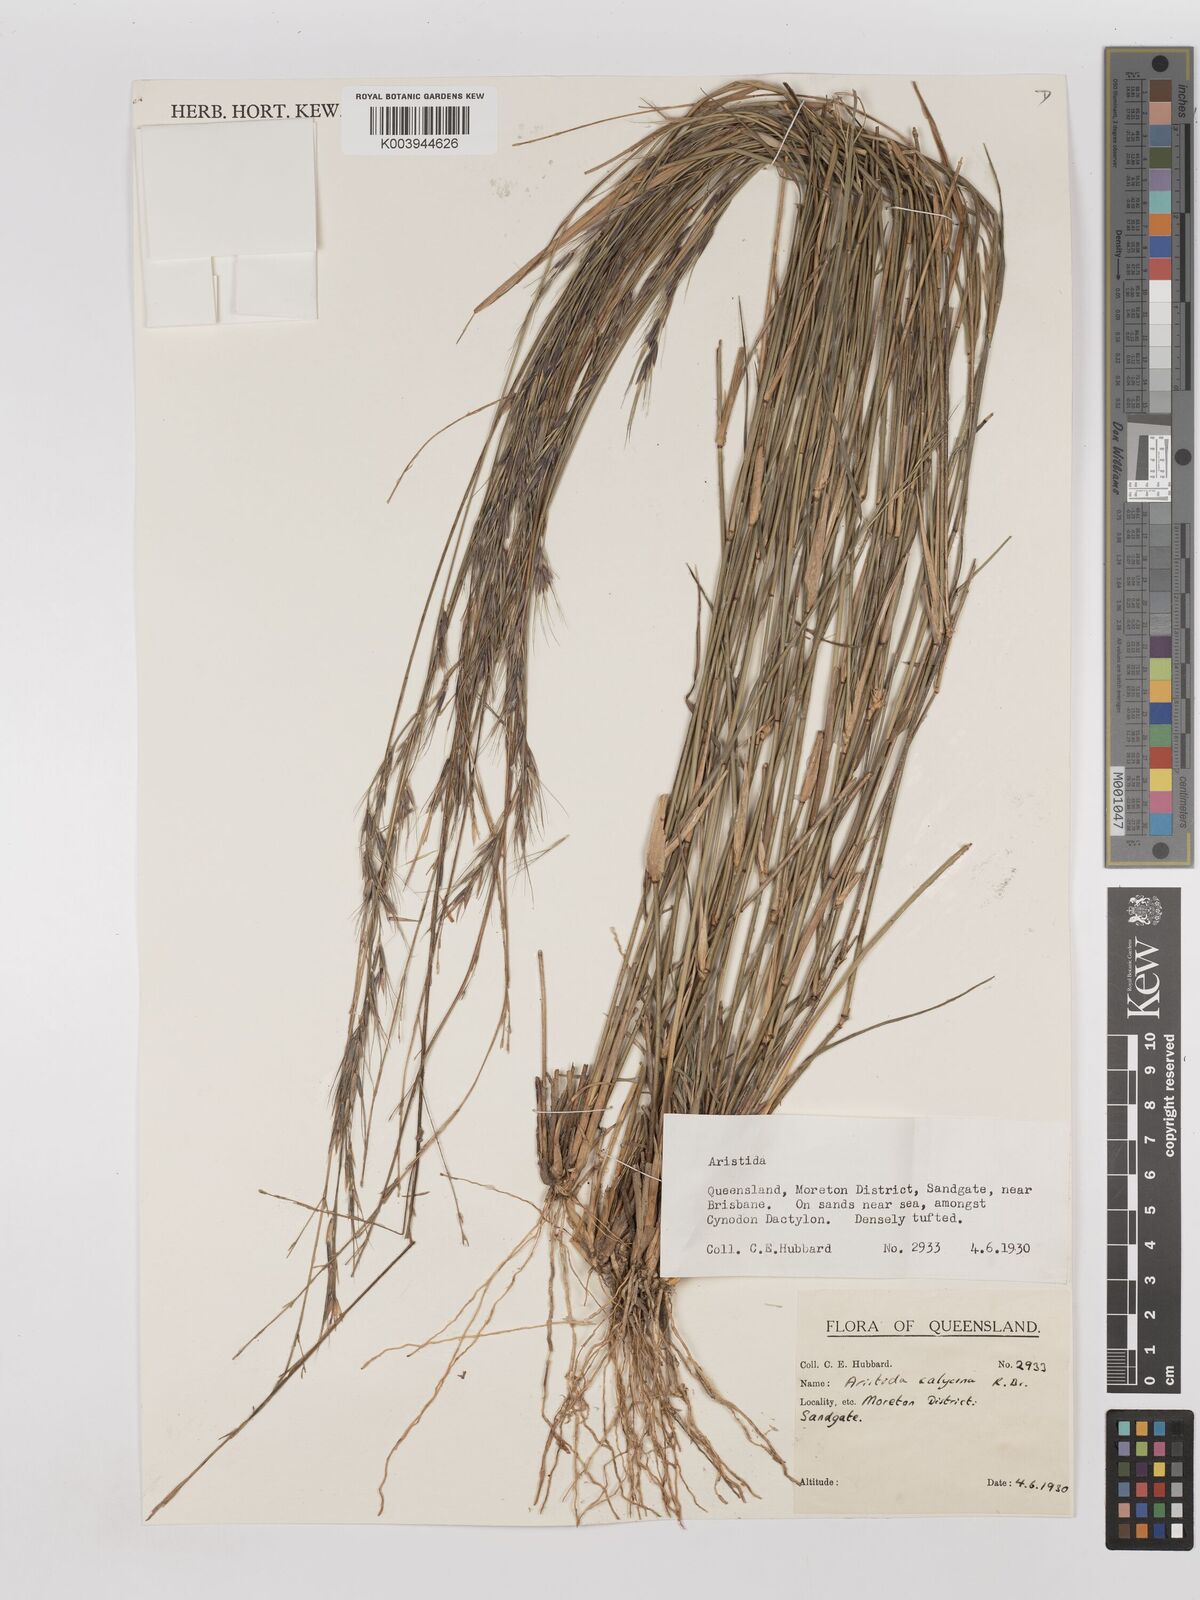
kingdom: Plantae
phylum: Tracheophyta
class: Liliopsida
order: Poales
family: Poaceae
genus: Aristida
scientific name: Aristida calycina
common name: Dark wire grass
